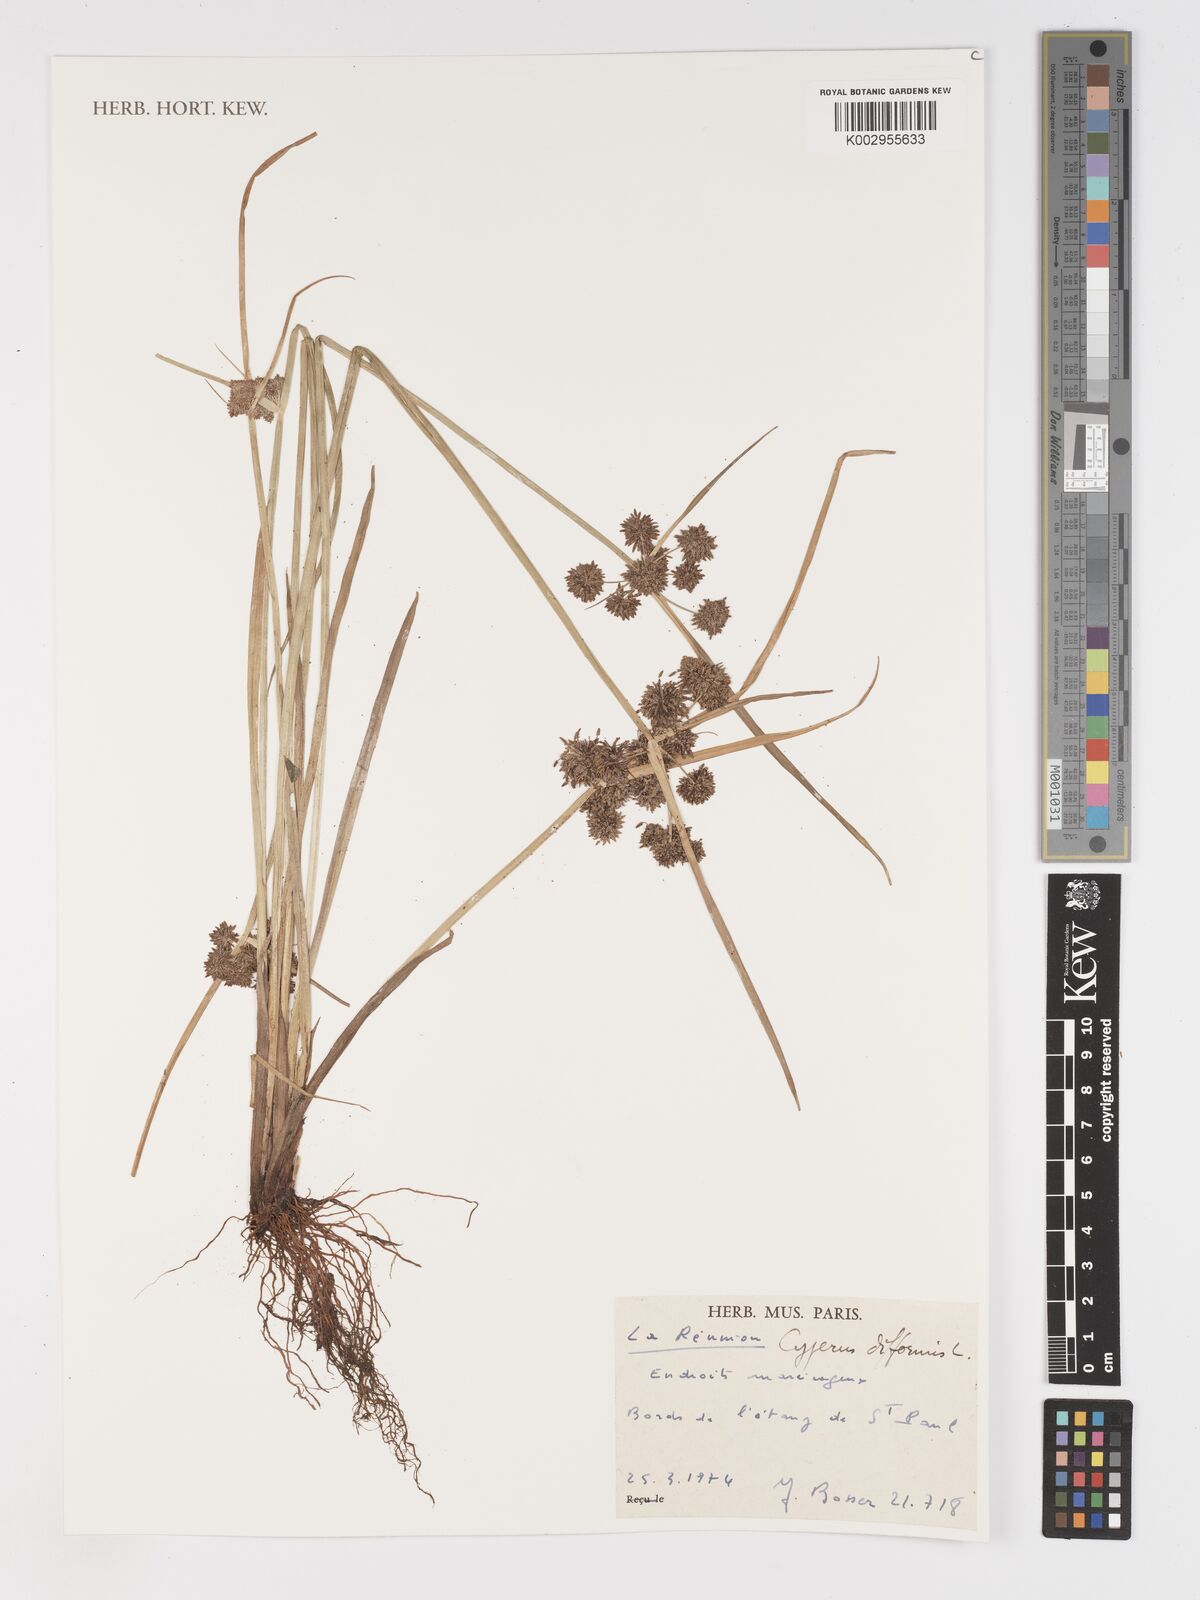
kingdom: Plantae
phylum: Tracheophyta
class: Liliopsida
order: Poales
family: Cyperaceae
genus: Cyperus
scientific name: Cyperus difformis
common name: Variable flatsedge
